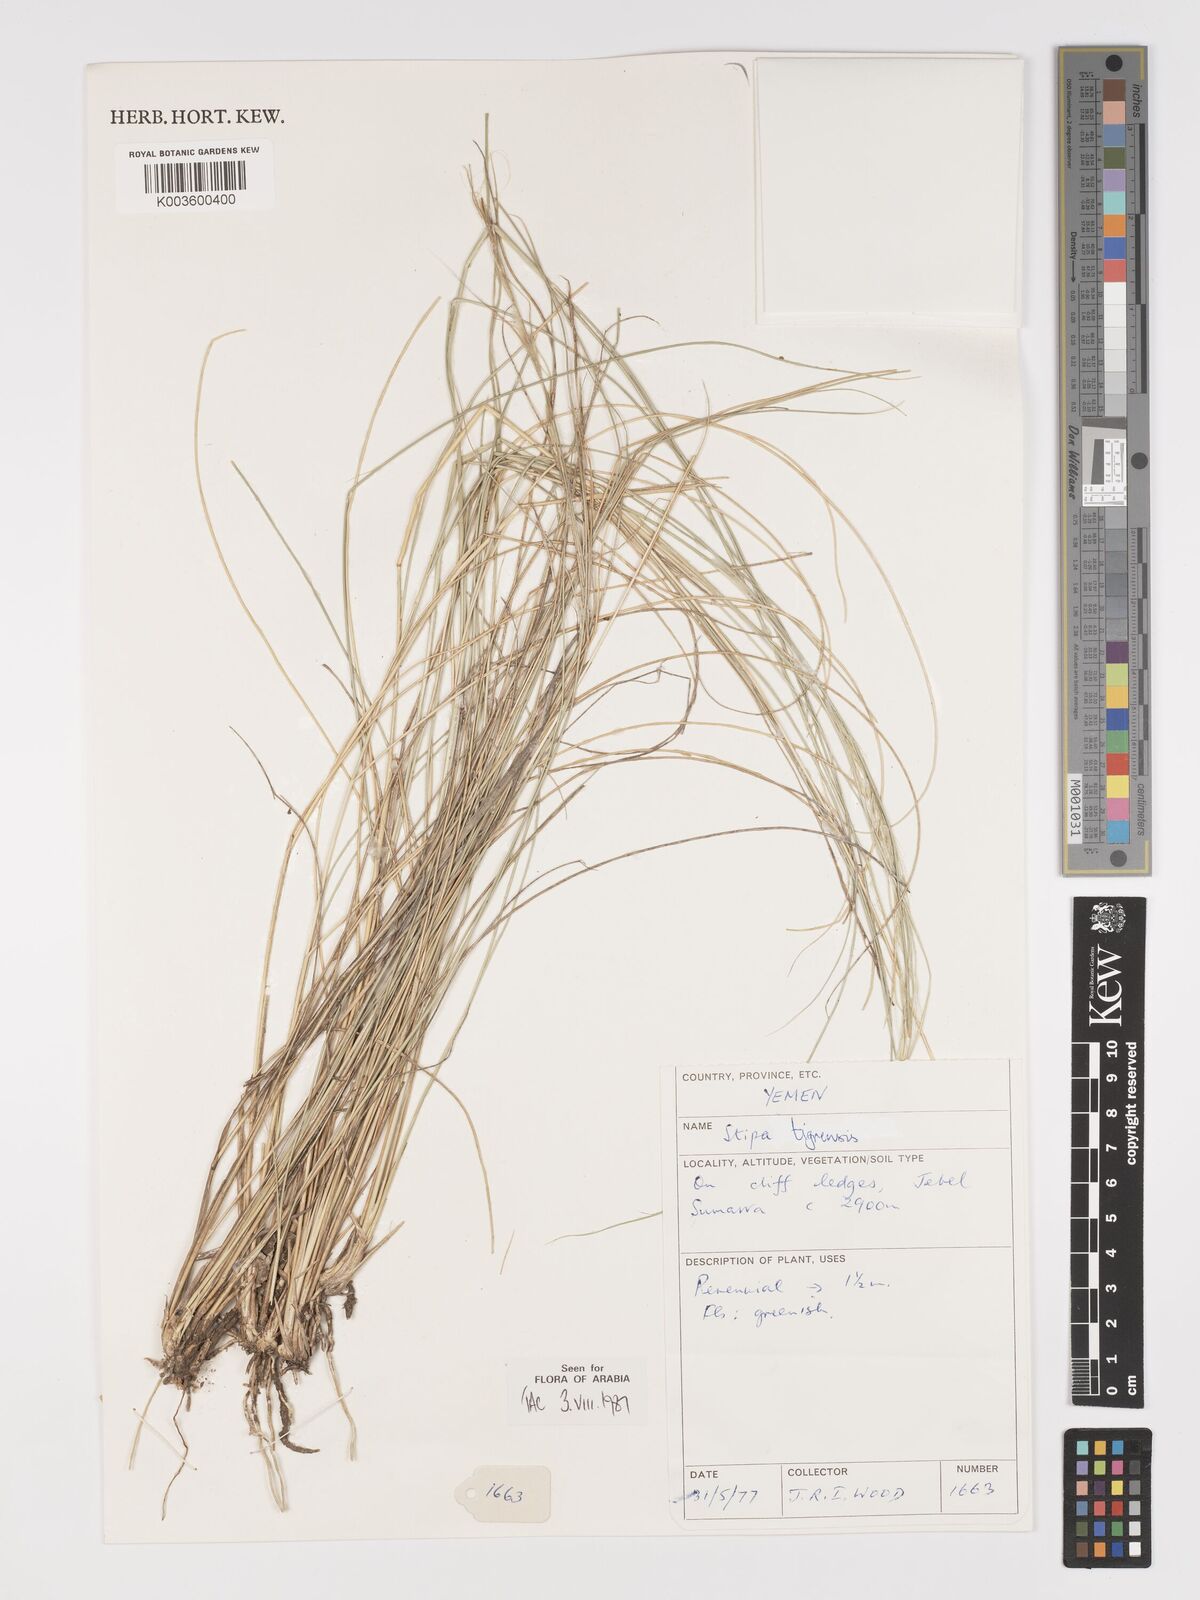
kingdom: Plantae
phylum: Tracheophyta
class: Liliopsida
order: Poales
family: Poaceae
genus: Stipa
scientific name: Stipa tigrensis
